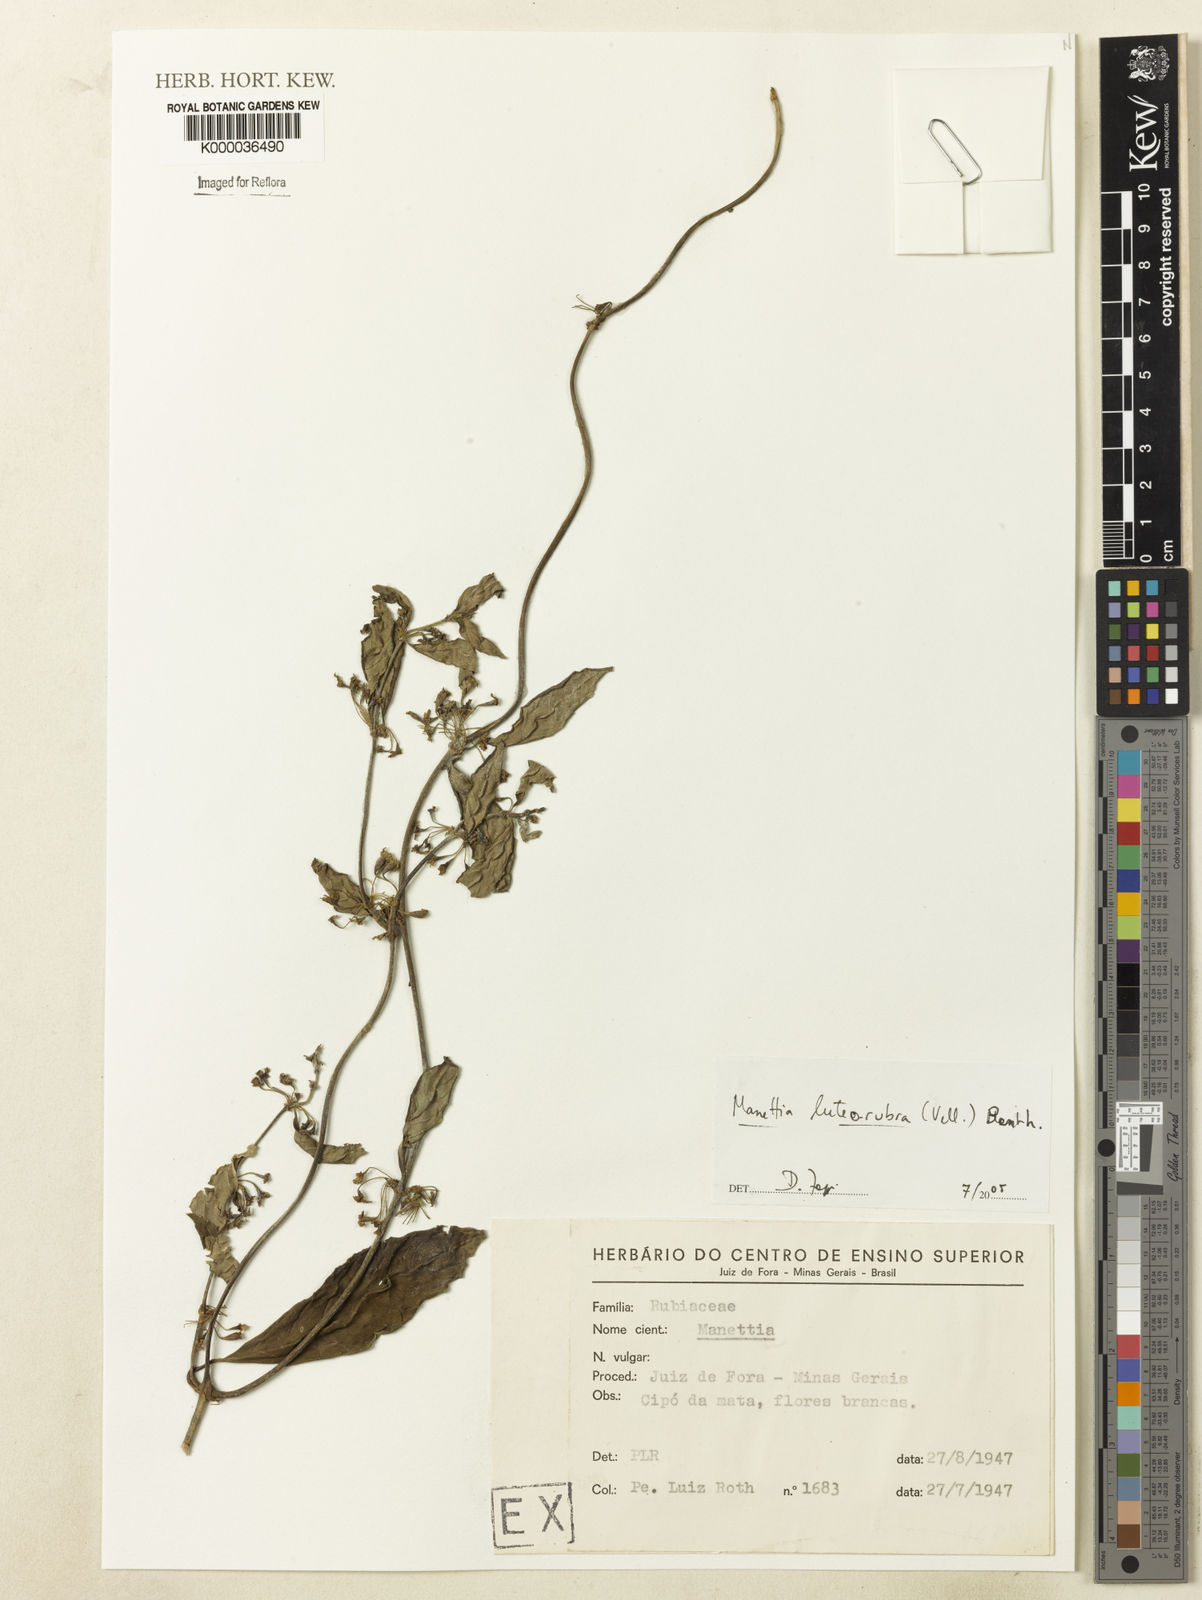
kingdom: Plantae
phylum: Tracheophyta
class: Magnoliopsida
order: Gentianales
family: Rubiaceae
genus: Manettia
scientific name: Manettia luteorubra
